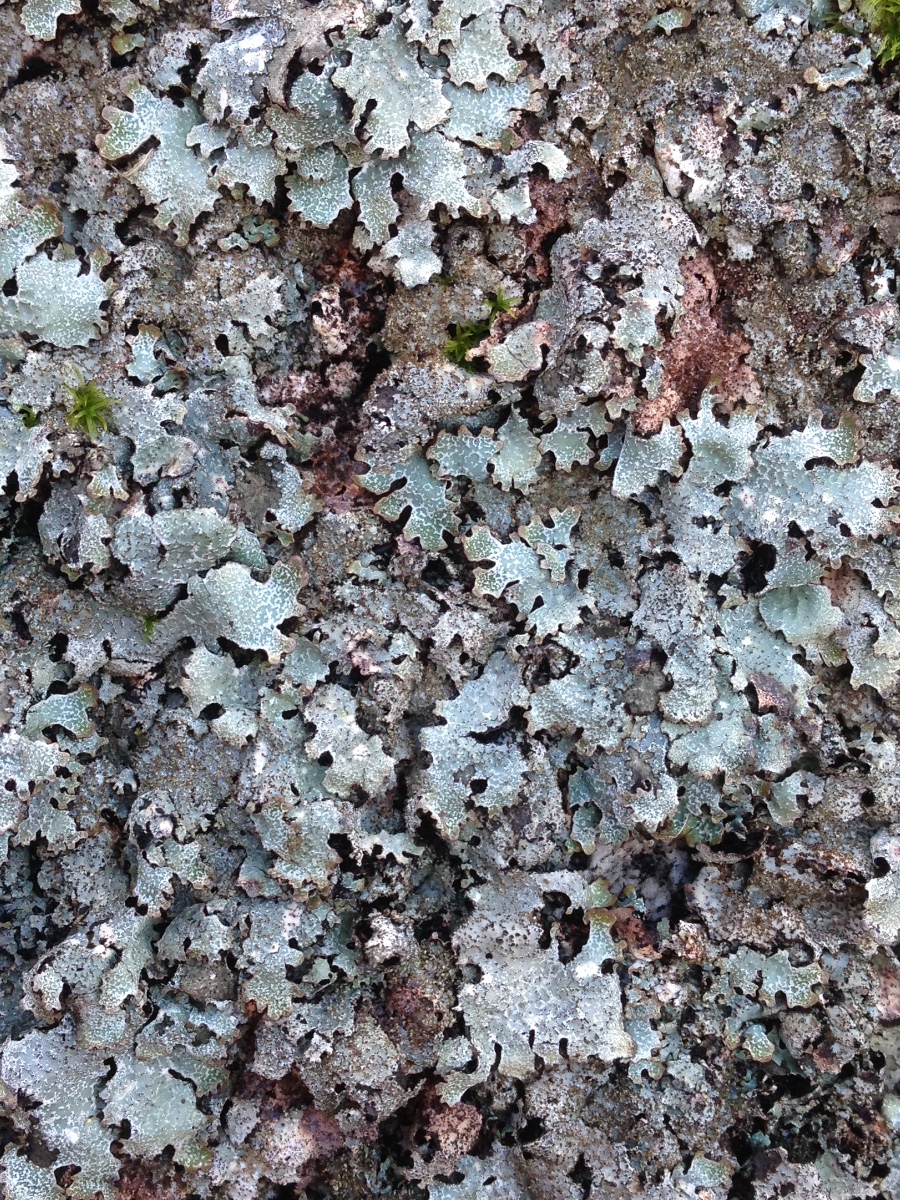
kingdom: Fungi
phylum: Ascomycota
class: Lecanoromycetes
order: Lecanorales
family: Parmeliaceae
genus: Parmelia
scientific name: Parmelia saxatilis
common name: farve-skållav
